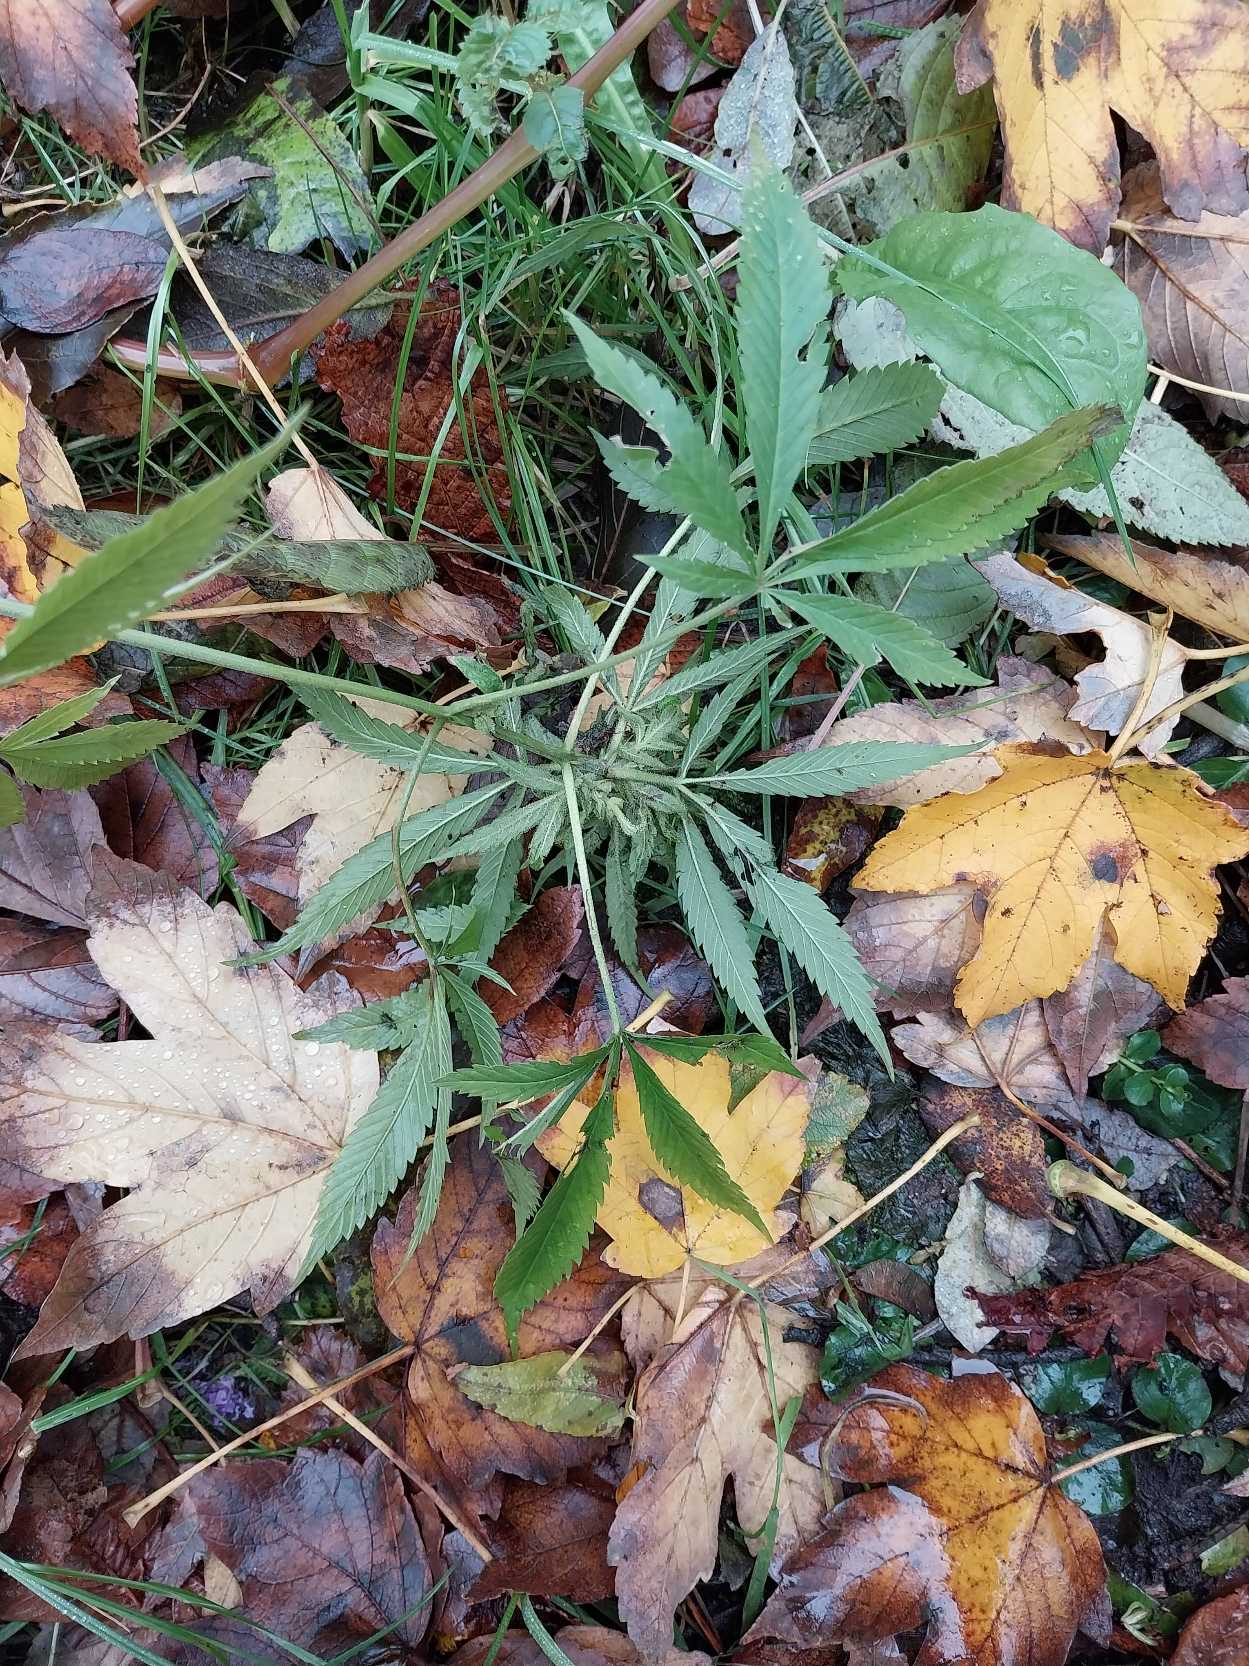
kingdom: Plantae
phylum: Tracheophyta
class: Magnoliopsida
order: Rosales
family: Cannabaceae
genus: Cannabis
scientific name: Cannabis sativa
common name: Hamp
